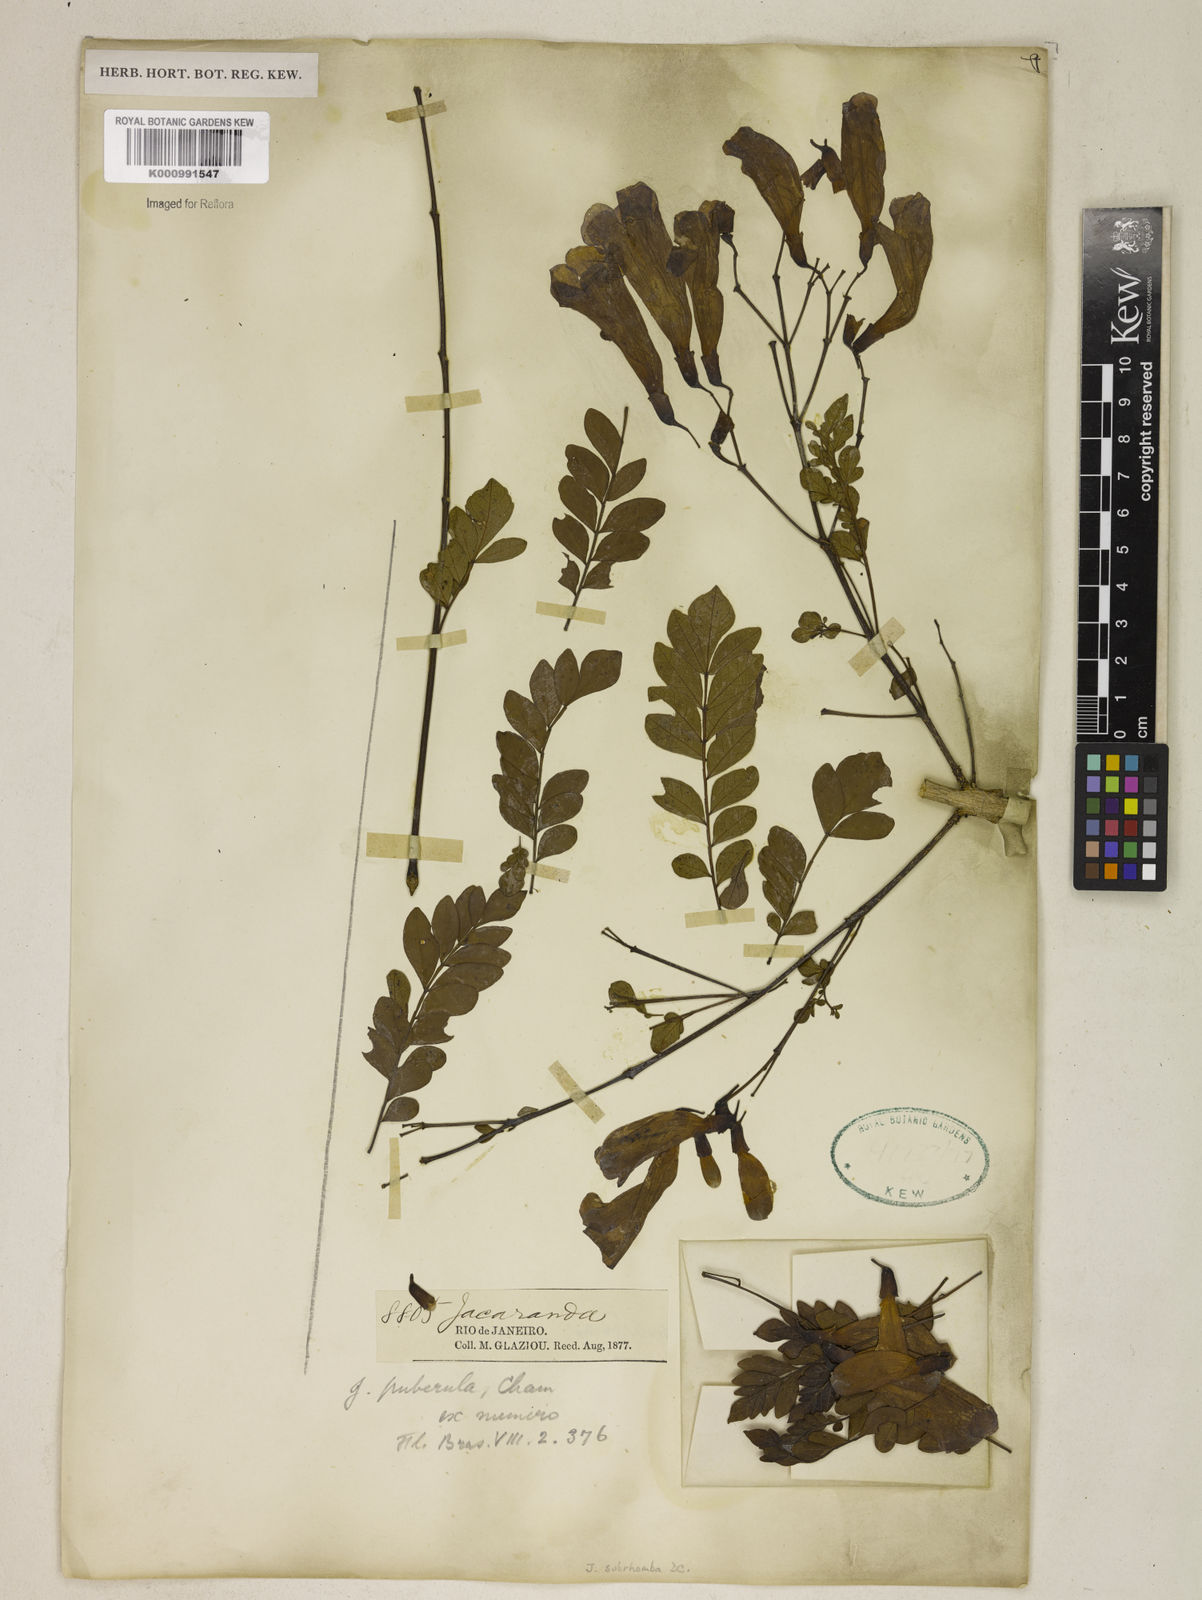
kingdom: Plantae
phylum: Tracheophyta
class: Magnoliopsida
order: Lamiales
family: Bignoniaceae
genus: Jacaranda
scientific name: Jacaranda puberula
